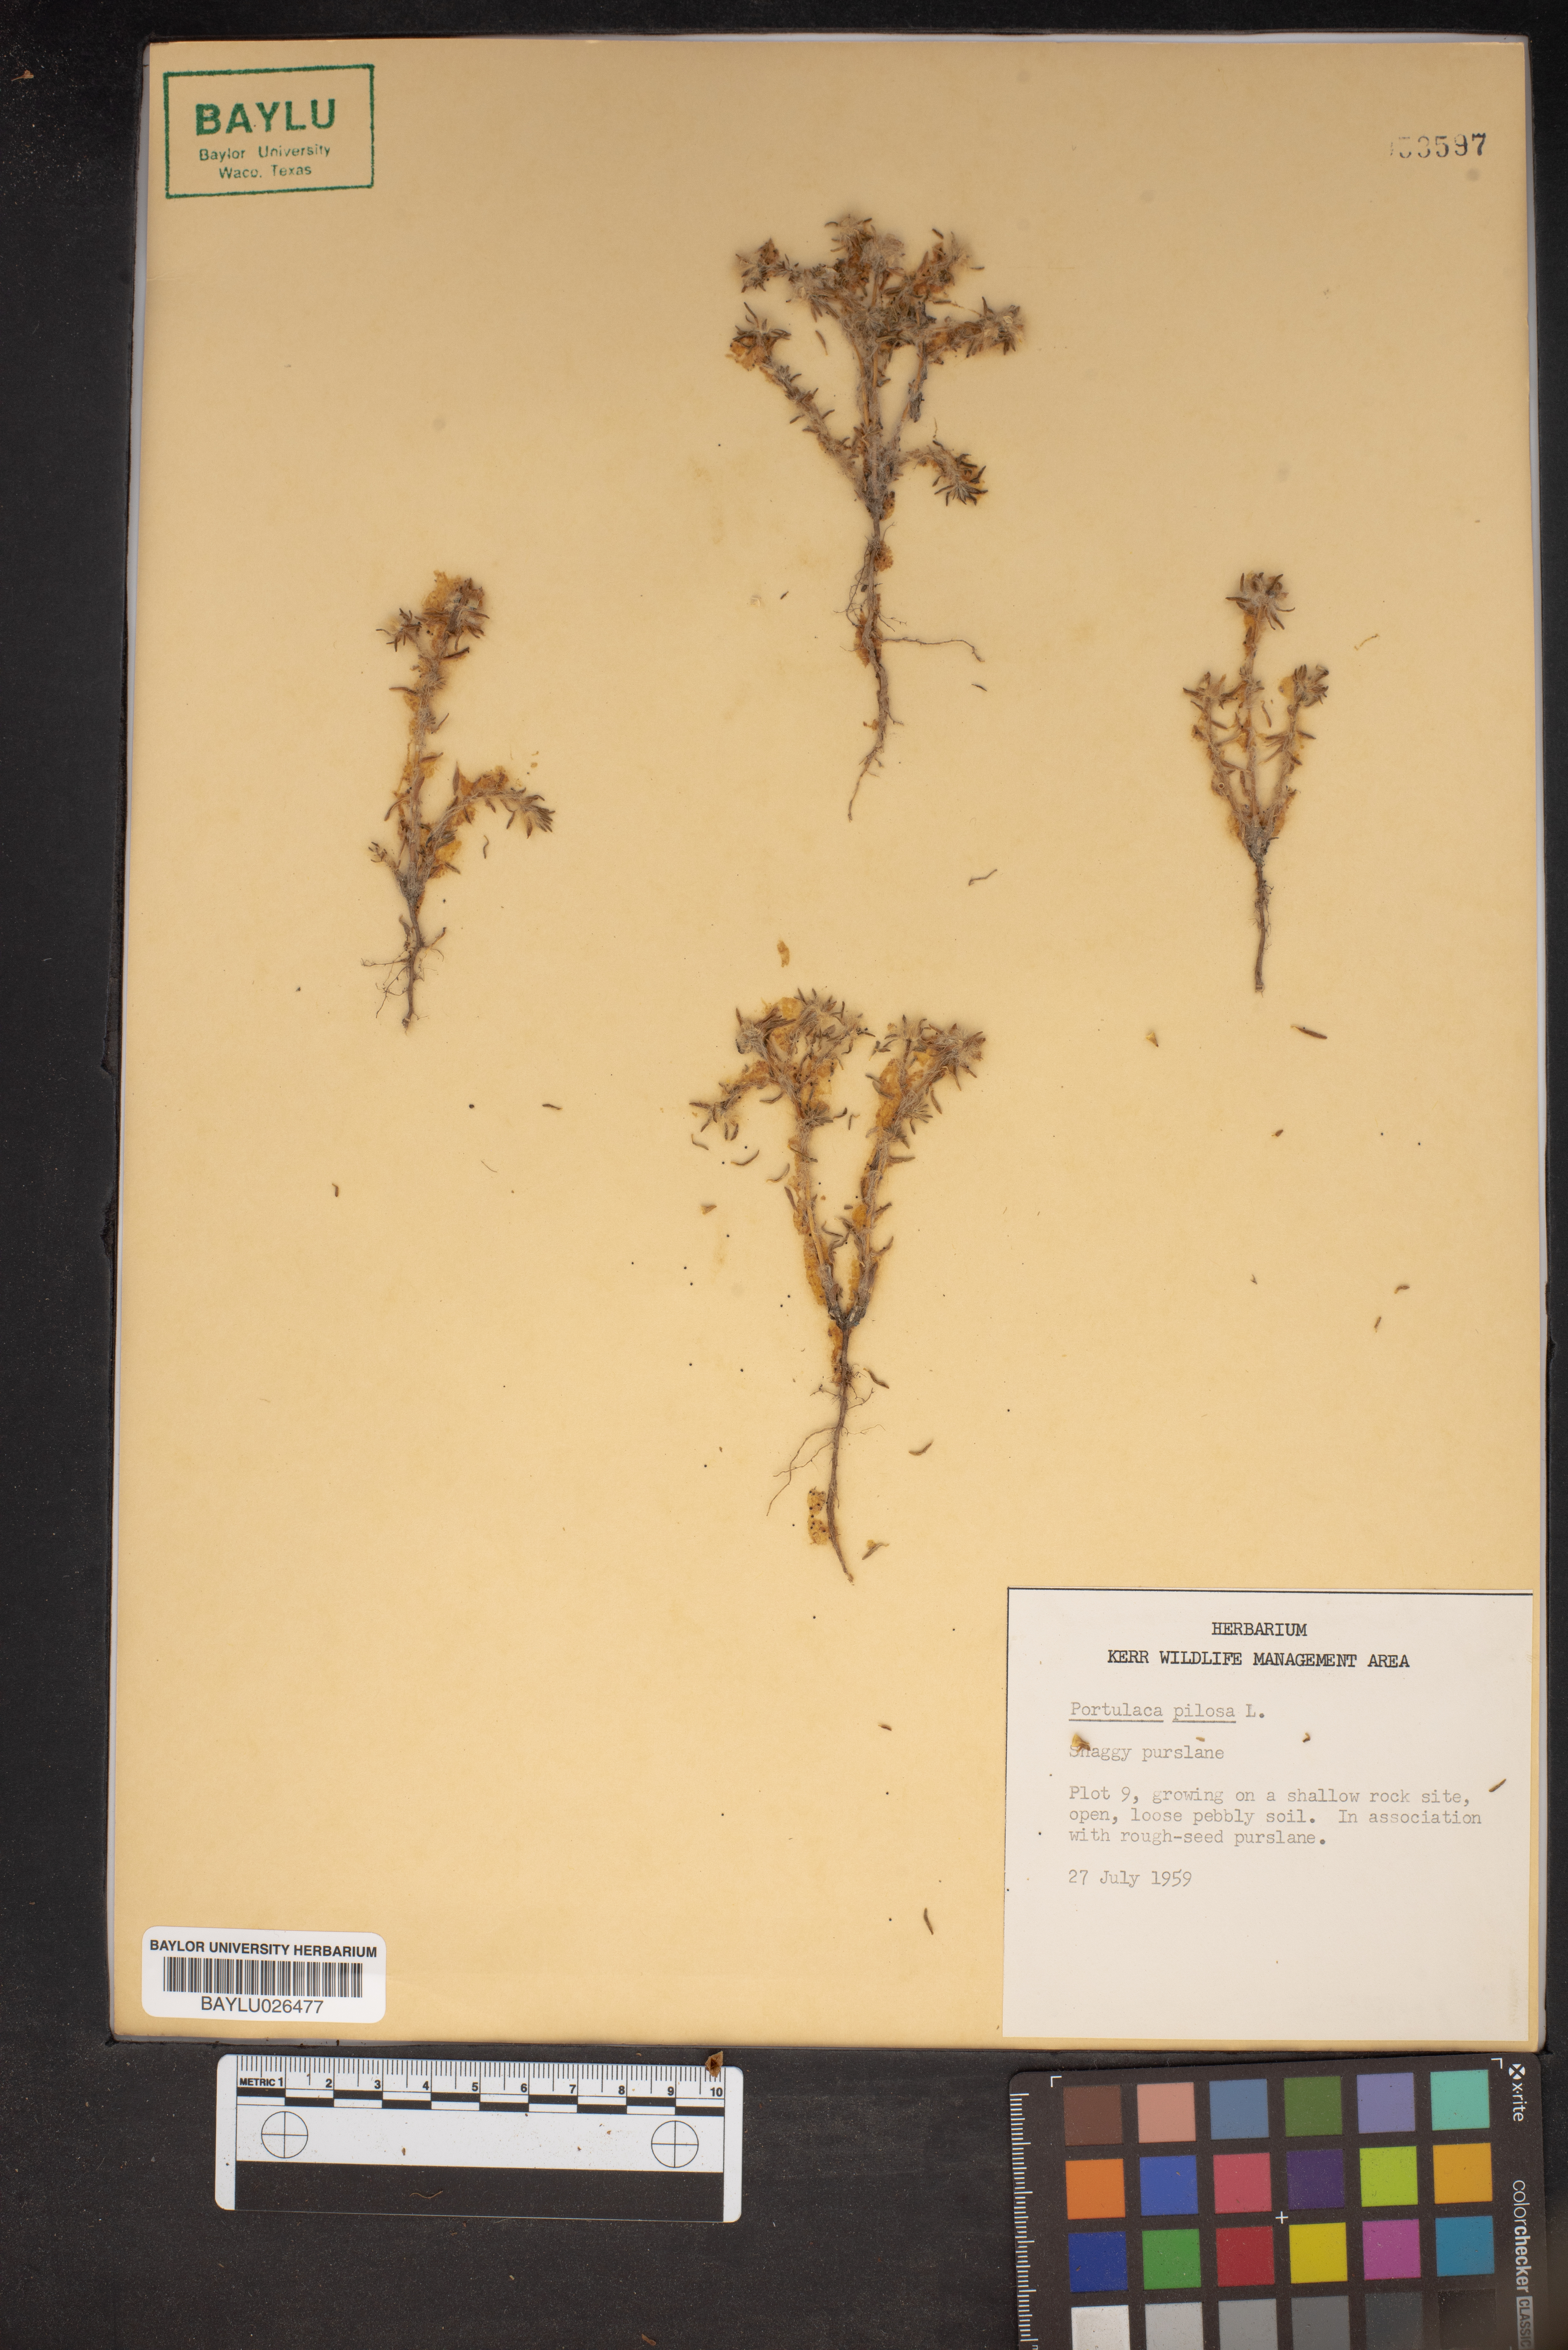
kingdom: Plantae
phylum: Tracheophyta
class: Magnoliopsida
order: Caryophyllales
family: Portulacaceae
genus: Portulaca
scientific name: Portulaca pilosa
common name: Kiss me quick
